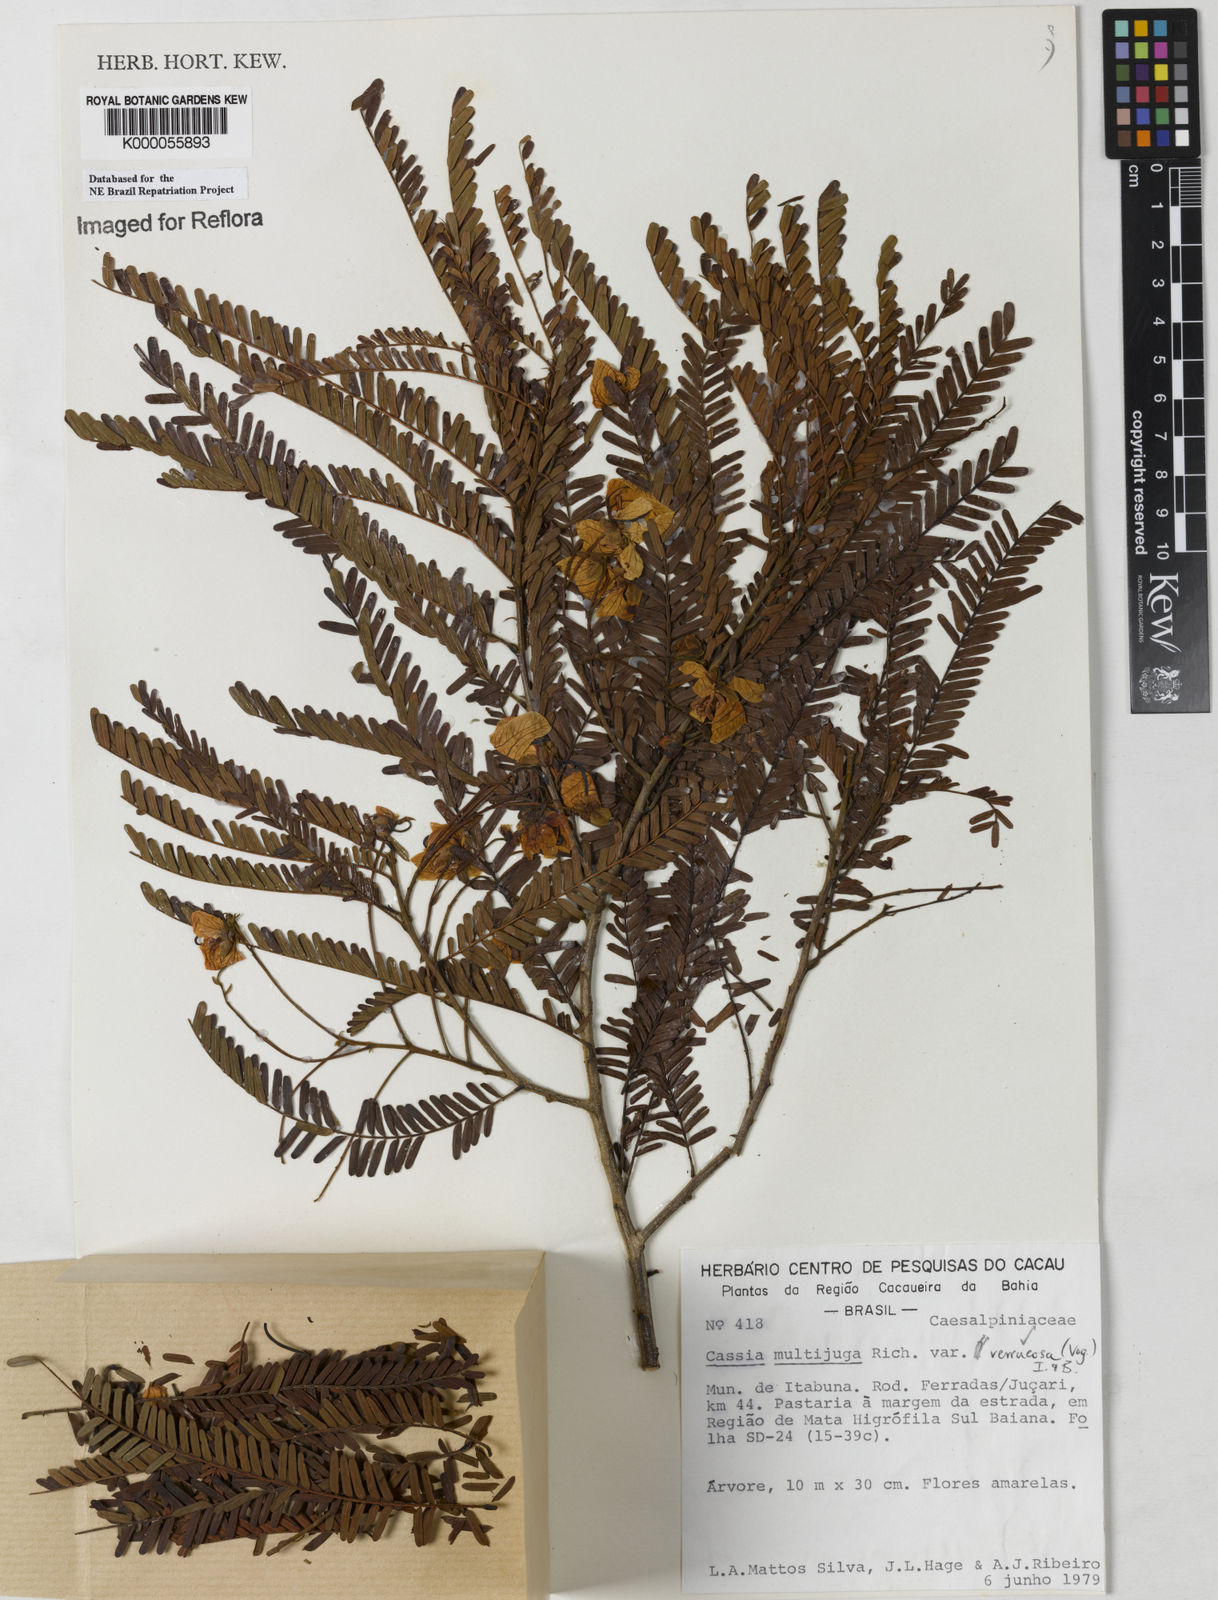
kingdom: Plantae
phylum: Tracheophyta
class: Magnoliopsida
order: Fabales
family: Fabaceae
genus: Senna
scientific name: Senna multijuga
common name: False sicklepod
